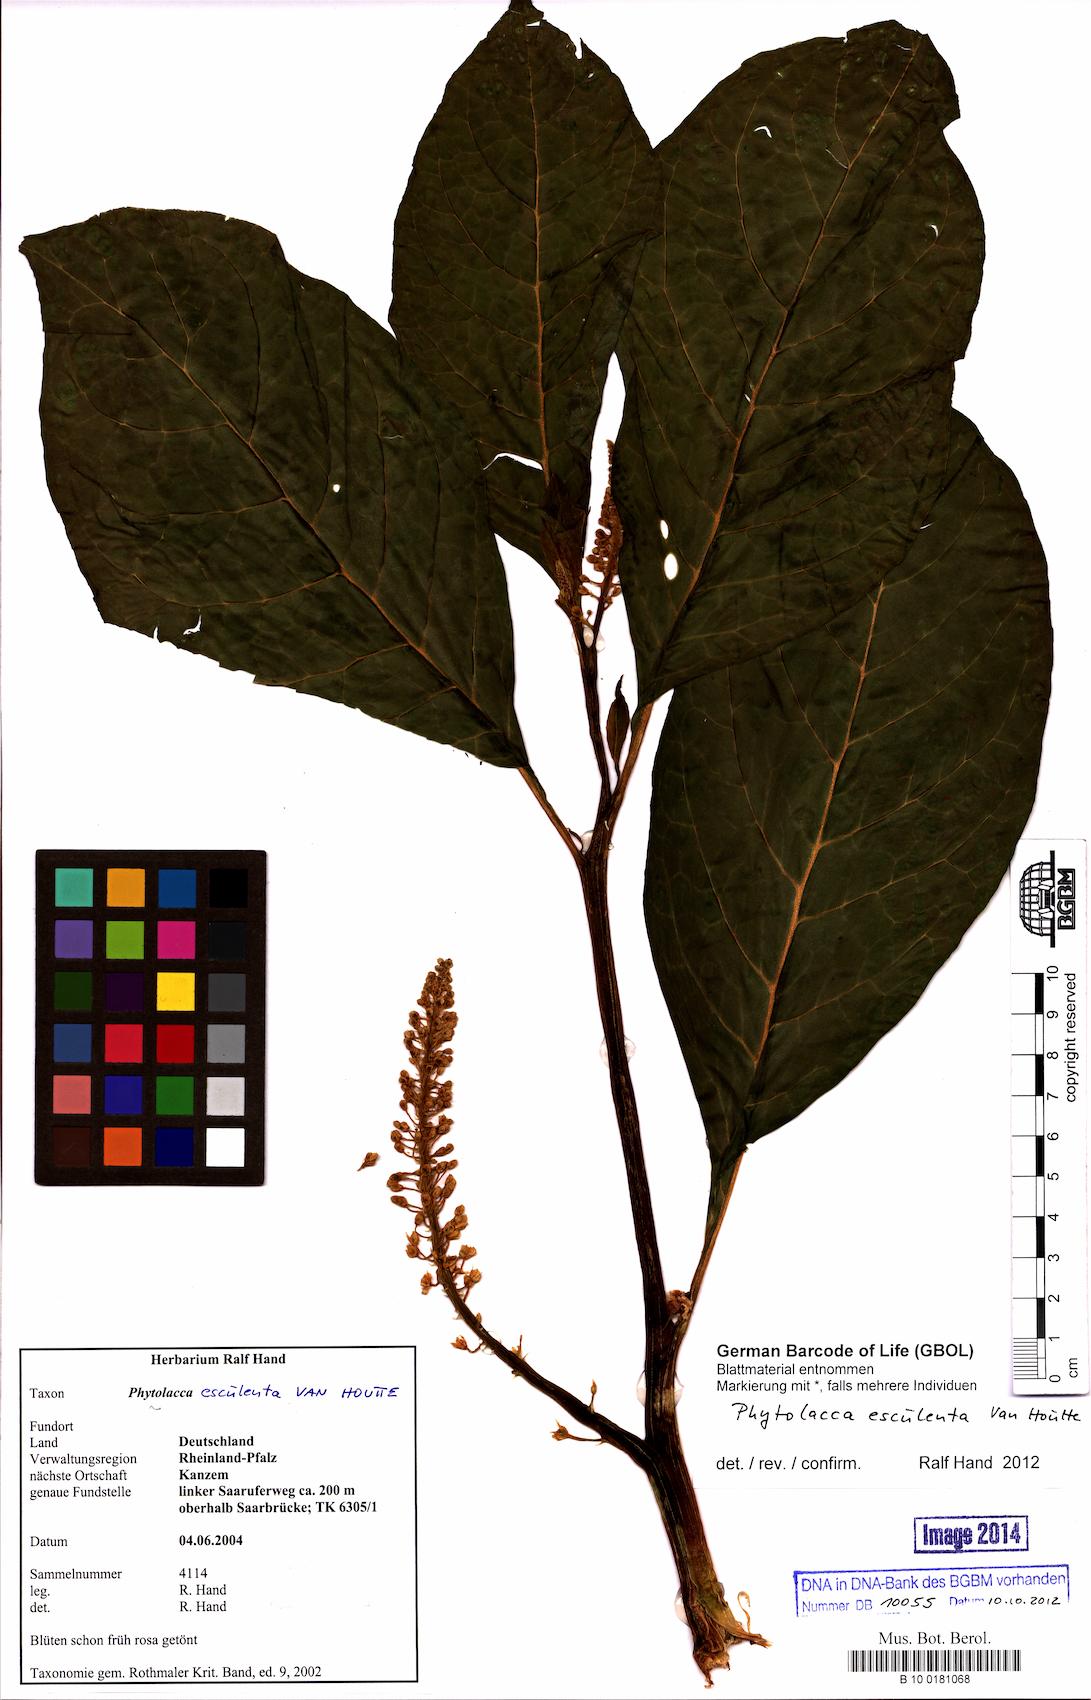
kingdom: Plantae
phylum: Tracheophyta
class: Magnoliopsida
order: Caryophyllales
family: Phytolaccaceae
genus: Phytolacca
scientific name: Phytolacca acinosa
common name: Indian pokeweed
